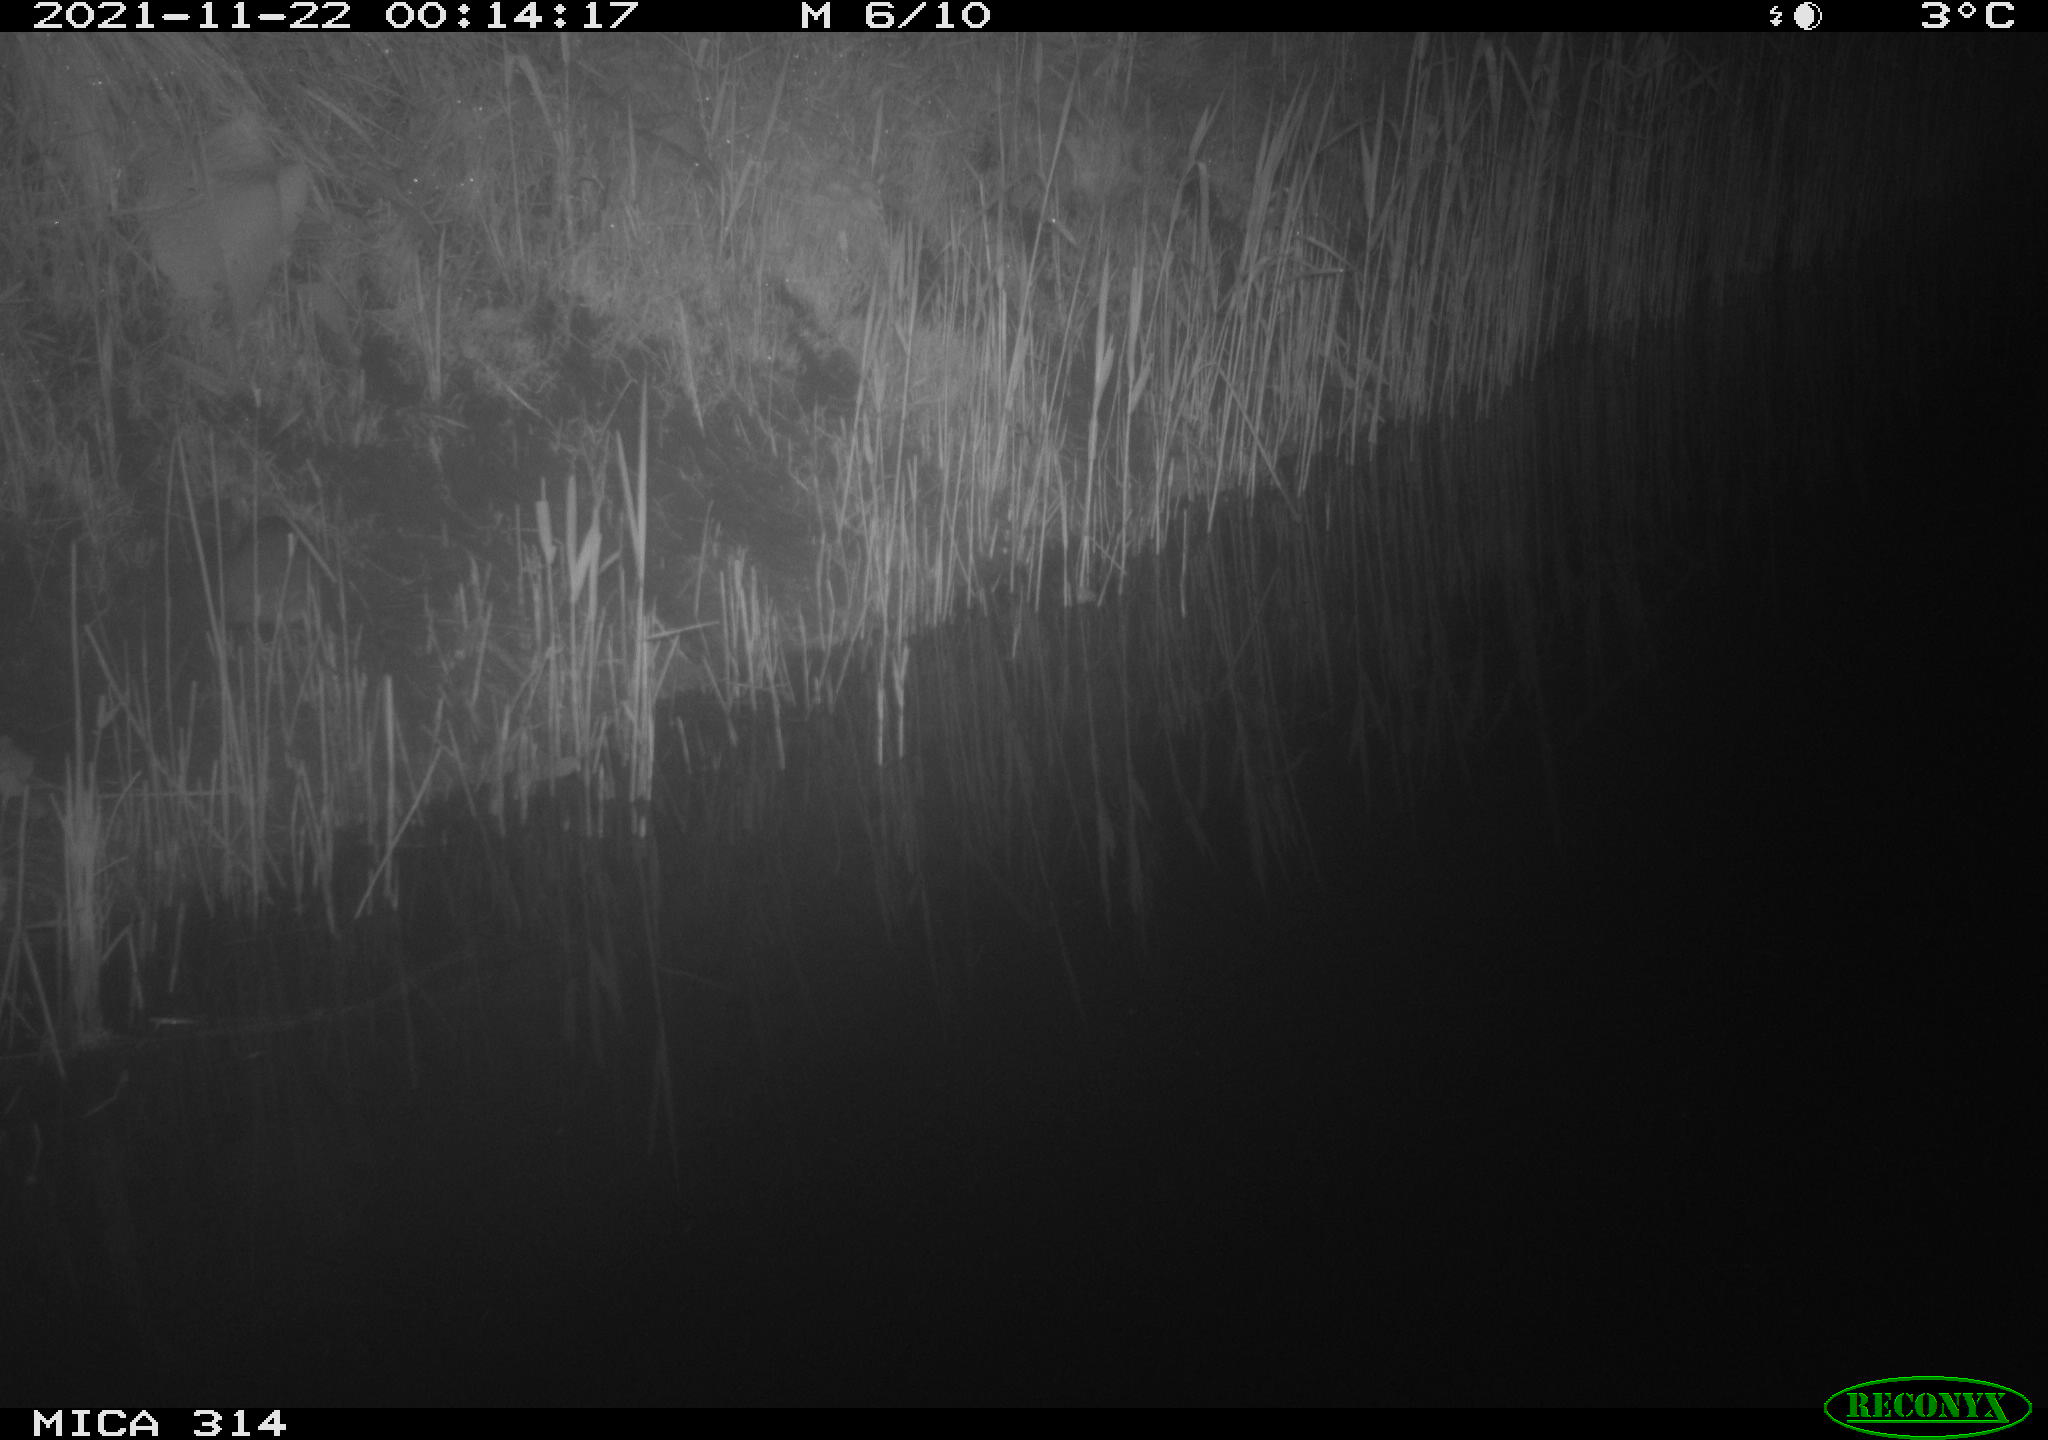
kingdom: Animalia
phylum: Chordata
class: Mammalia
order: Rodentia
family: Muridae
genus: Rattus
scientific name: Rattus norvegicus
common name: Brown rat
